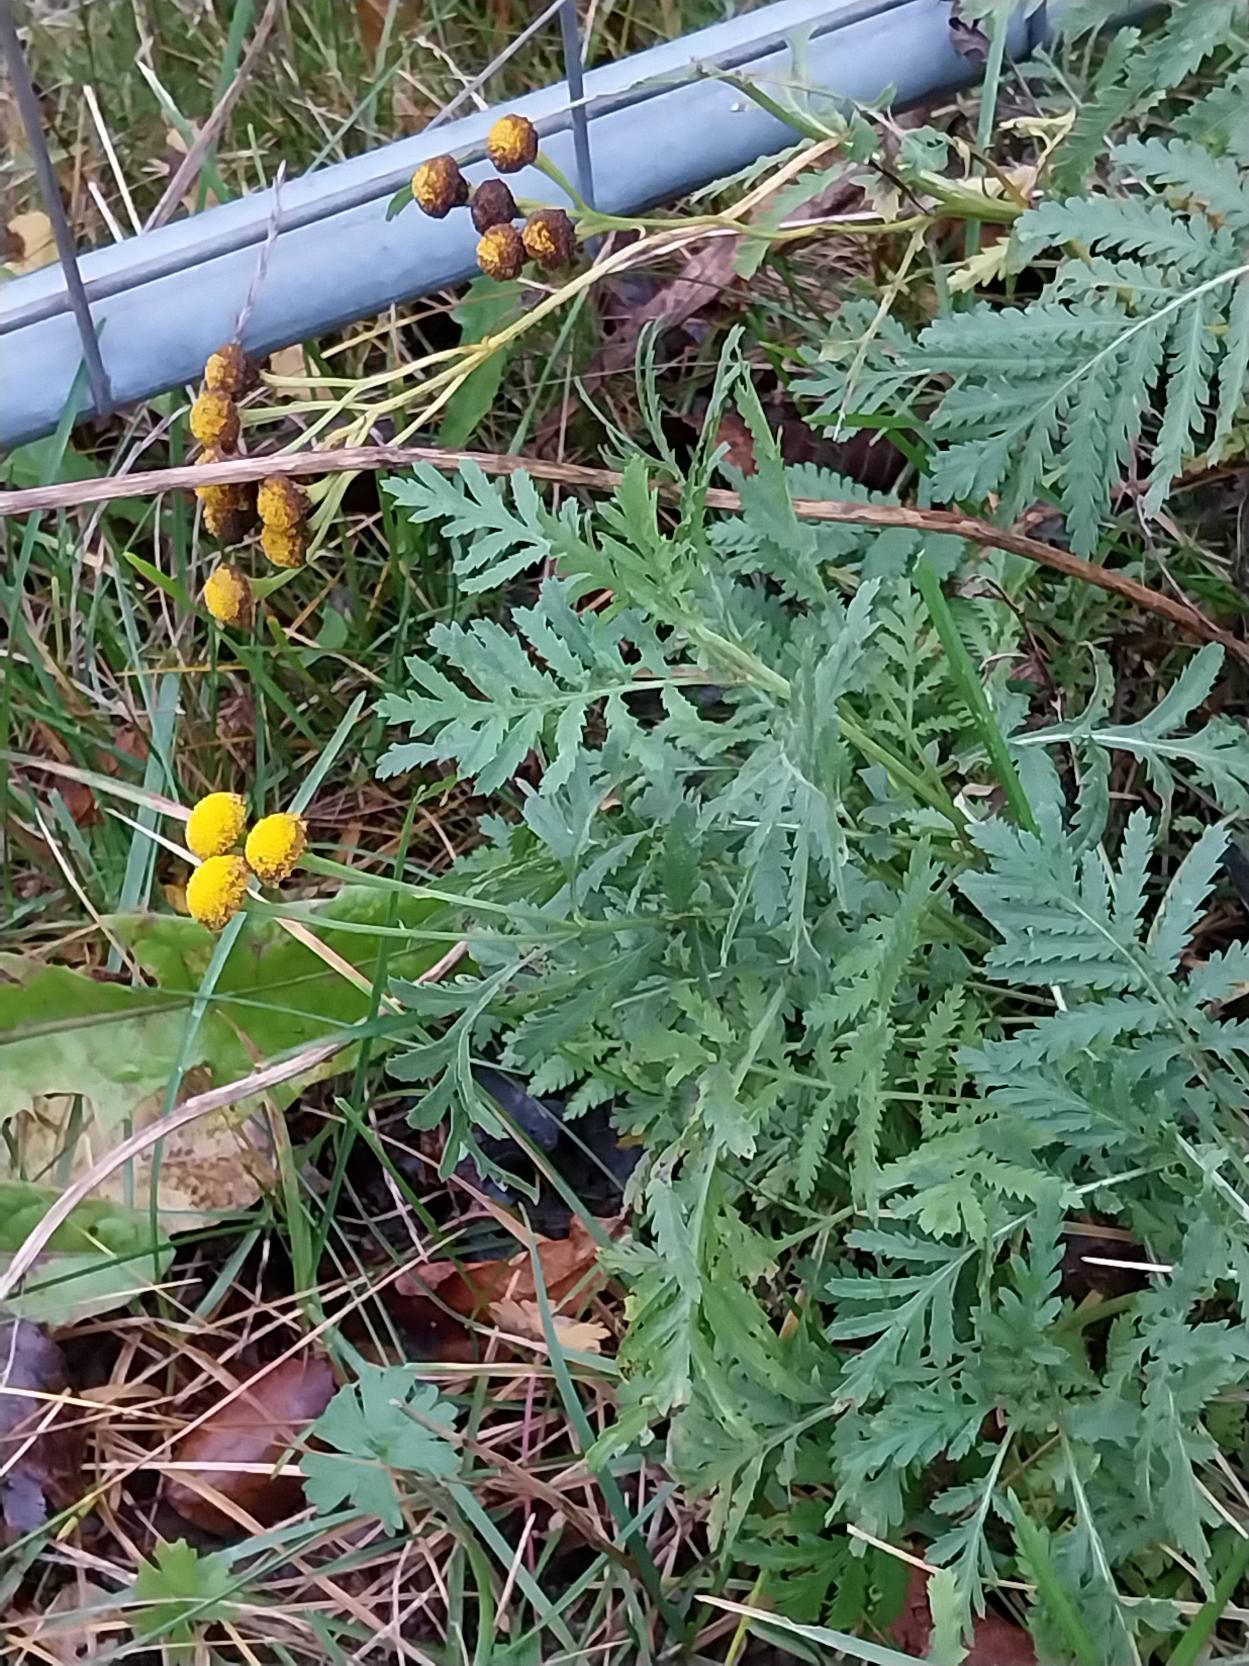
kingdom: Plantae
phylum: Tracheophyta
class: Magnoliopsida
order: Asterales
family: Asteraceae
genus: Tanacetum
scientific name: Tanacetum vulgare
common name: Rejnfan
